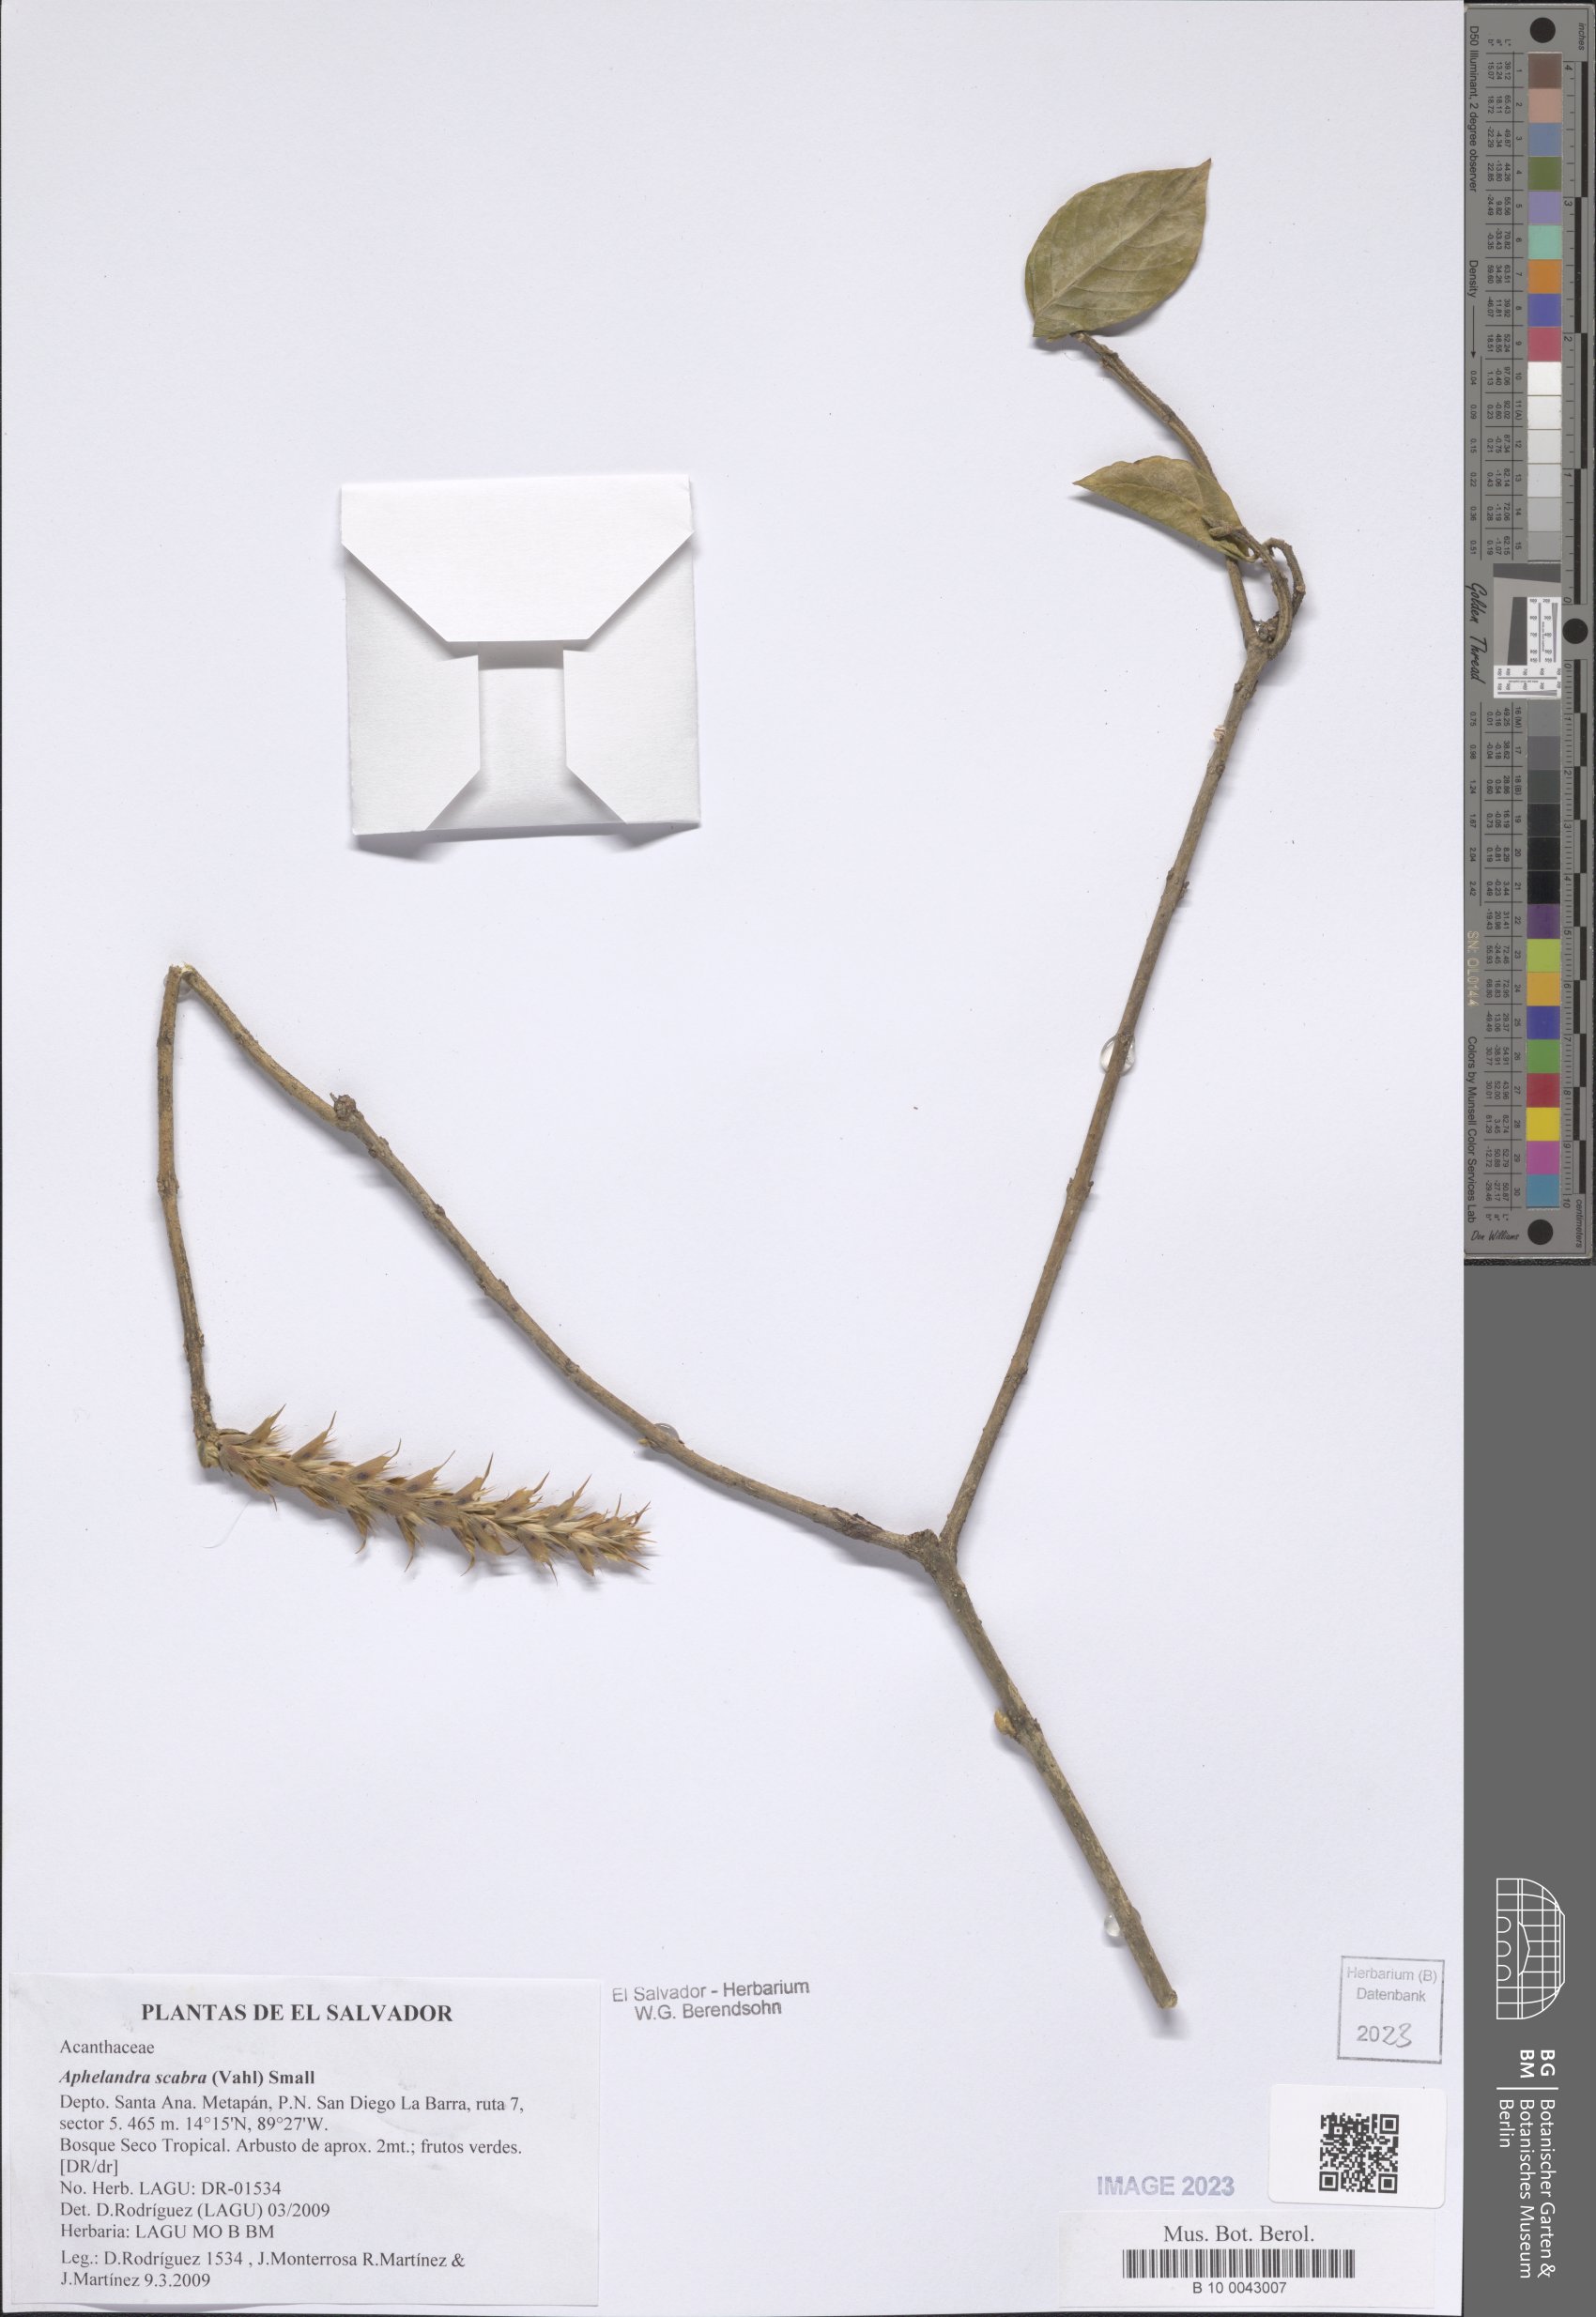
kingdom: Plantae
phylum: Tracheophyta
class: Magnoliopsida
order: Lamiales
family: Acanthaceae
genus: Aphelandra
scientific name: Aphelandra scabra
